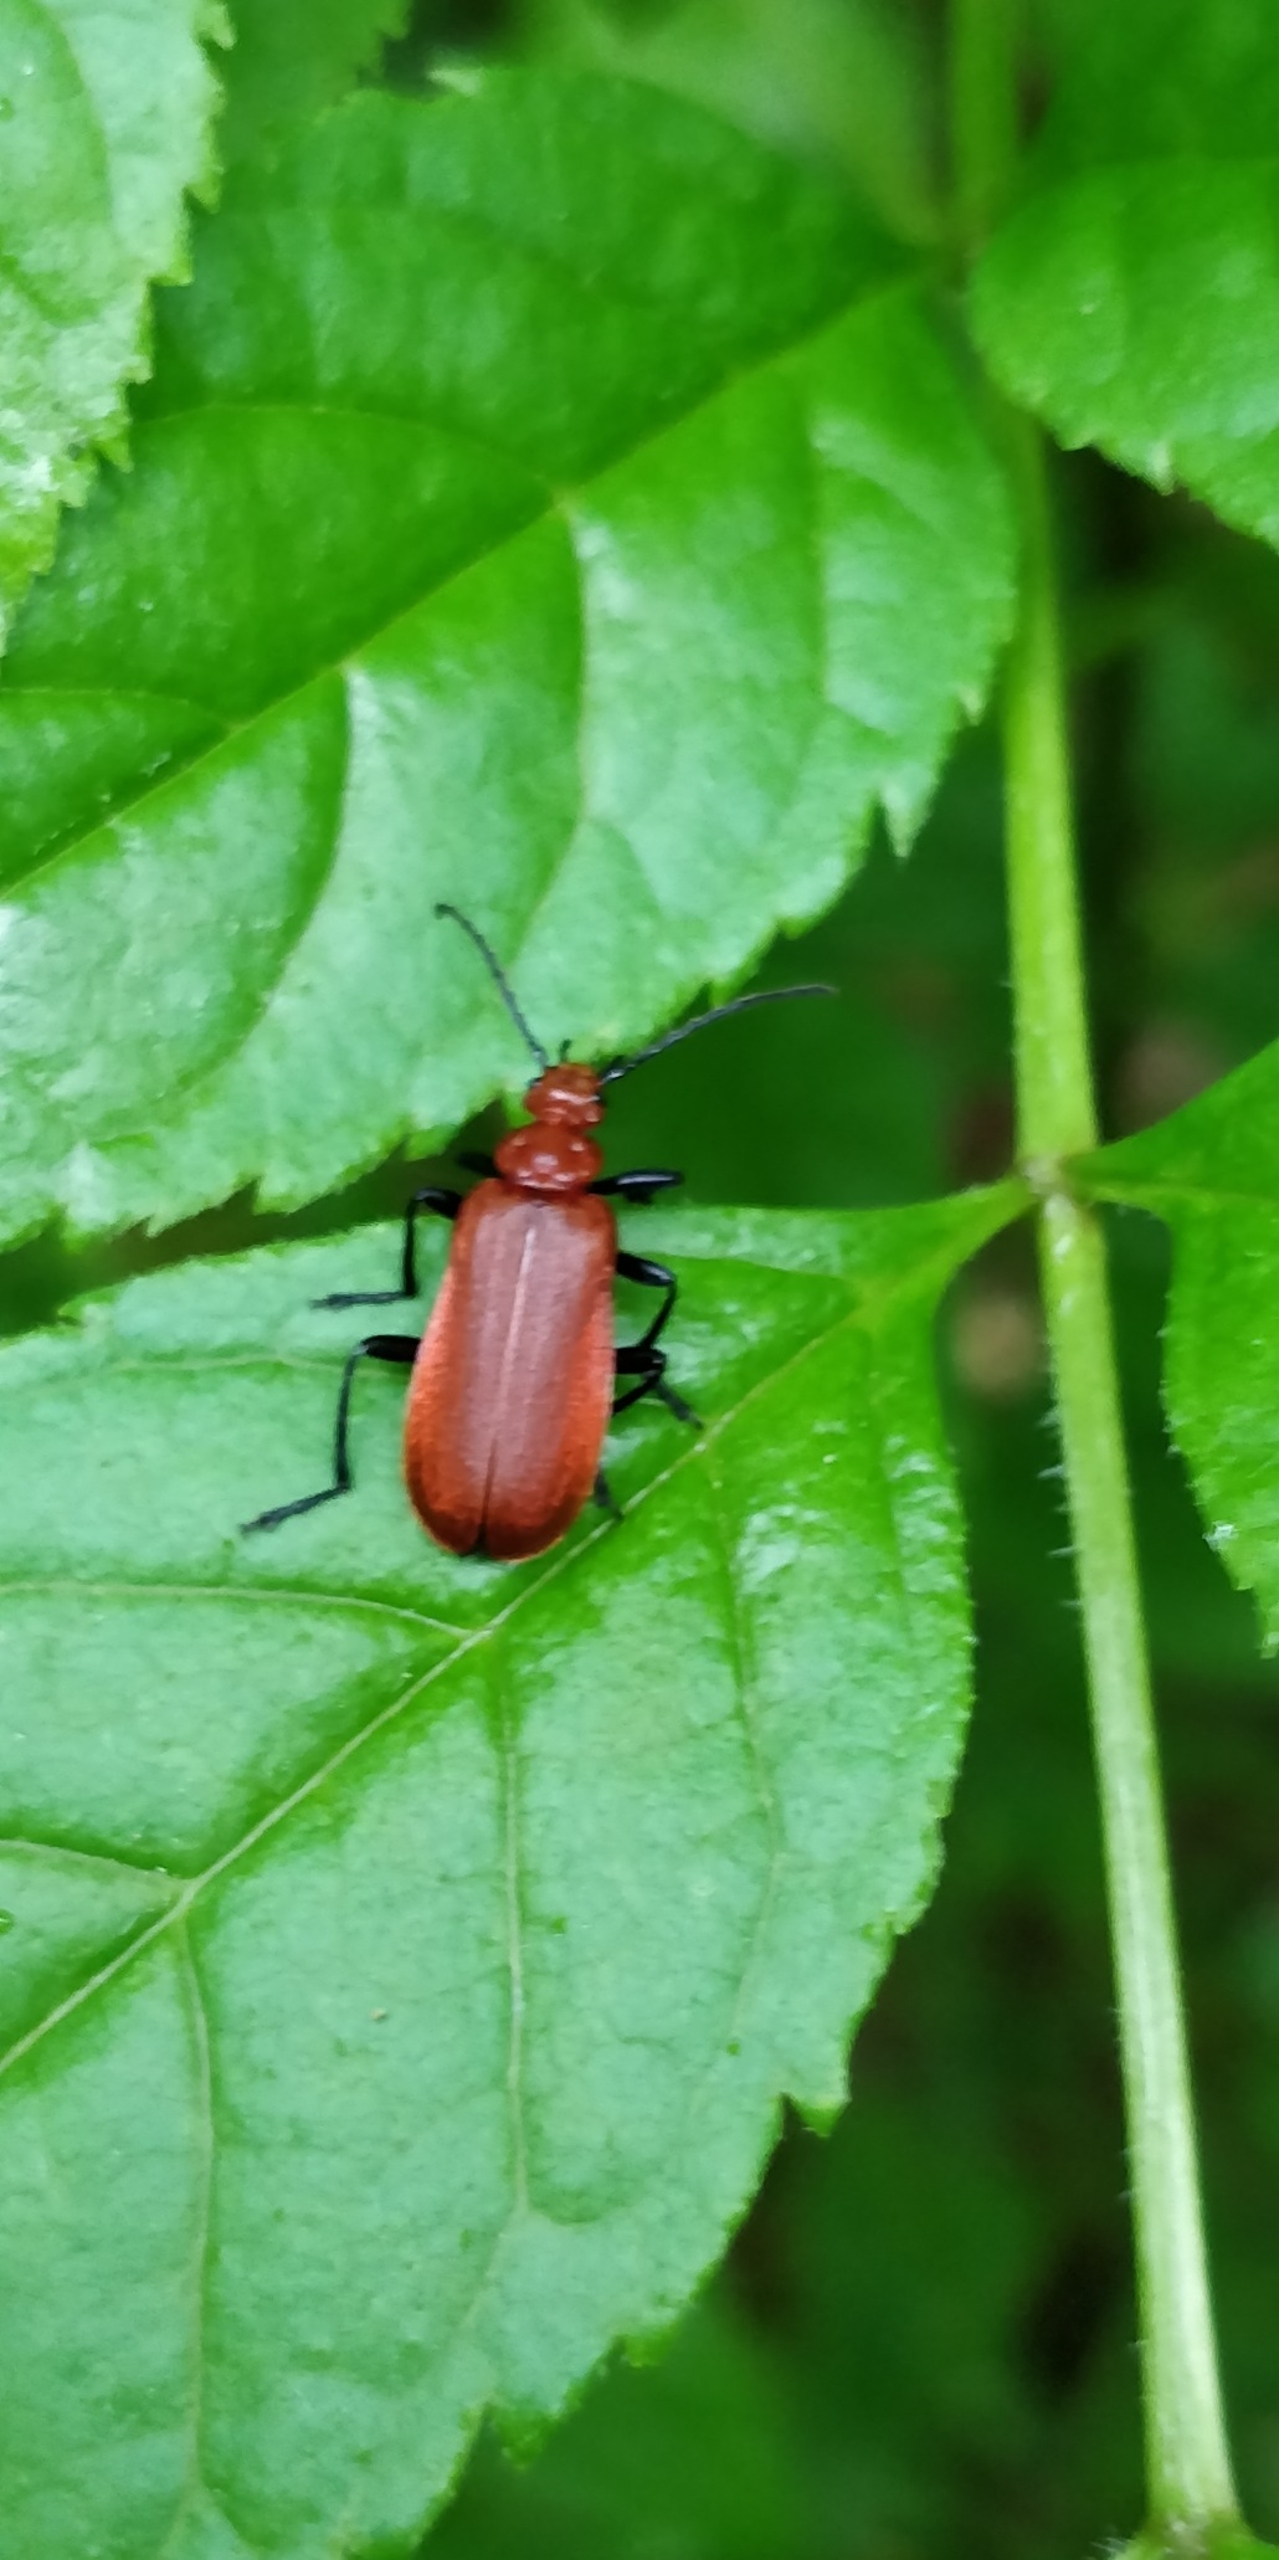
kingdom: Animalia
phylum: Arthropoda
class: Insecta
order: Coleoptera
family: Pyrochroidae
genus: Pyrochroa
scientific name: Pyrochroa serraticornis
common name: Rødhovedet kardinalbille
